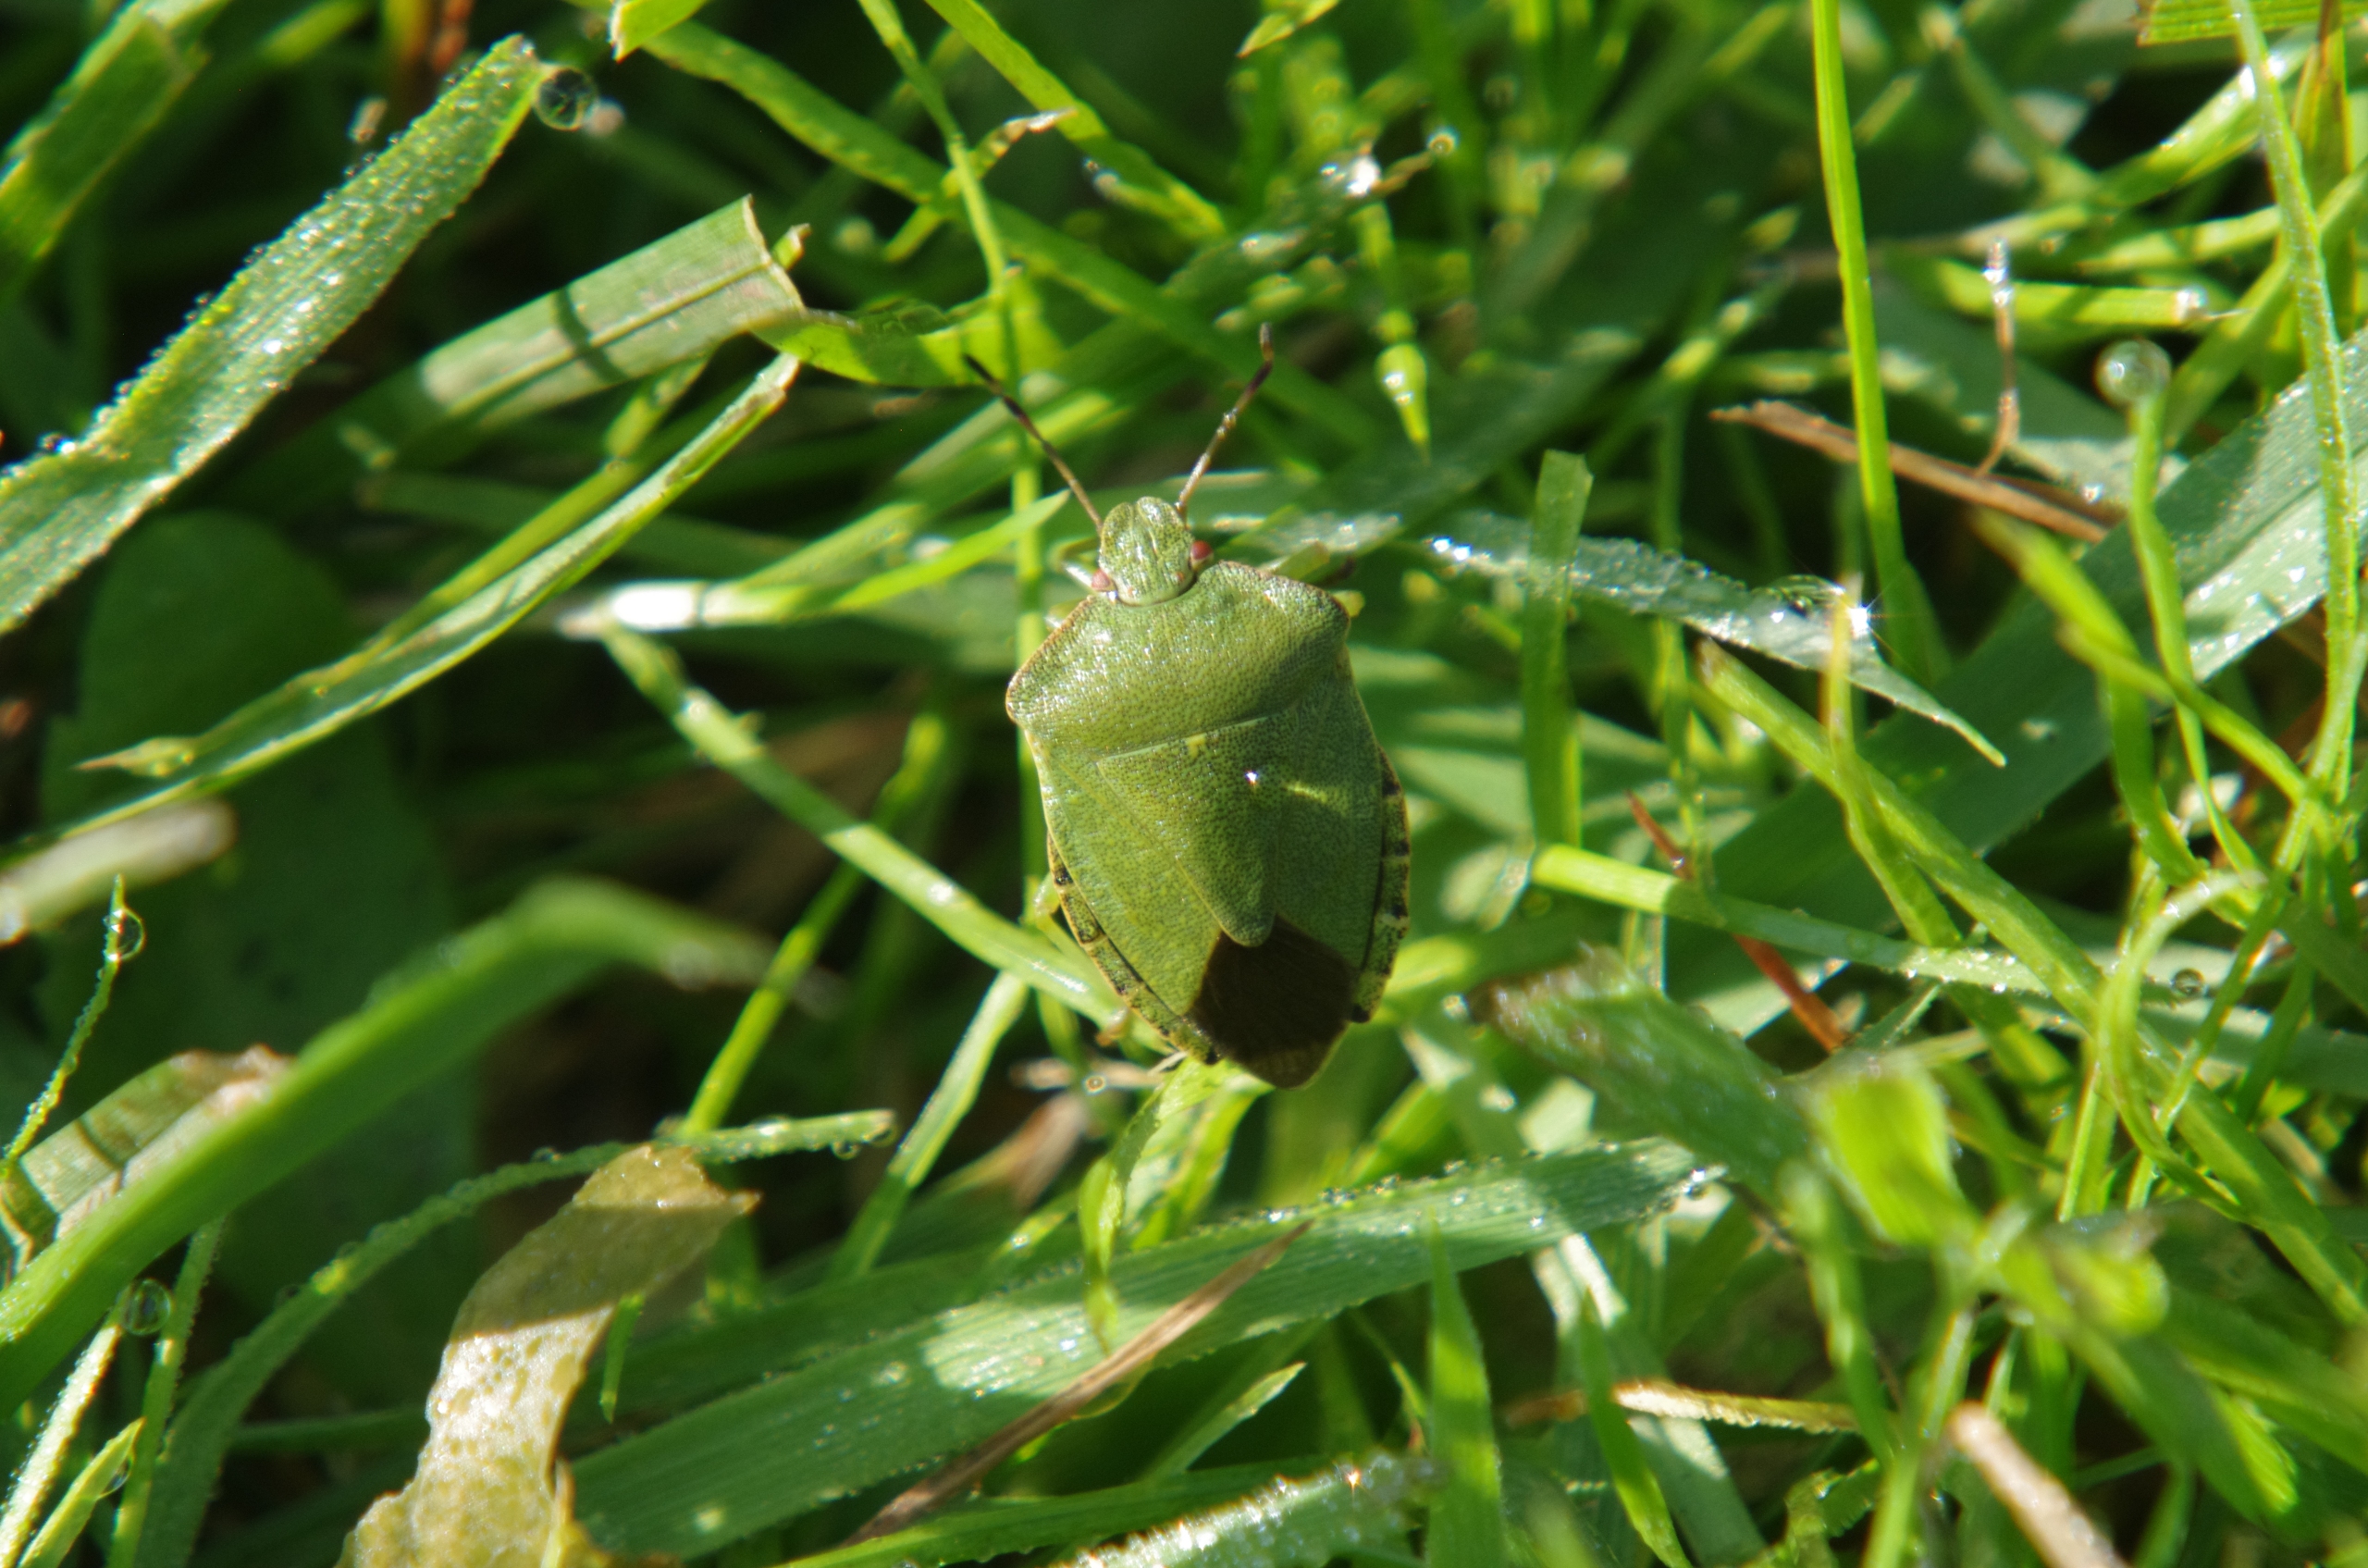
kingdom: Animalia
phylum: Arthropoda
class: Insecta
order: Hemiptera
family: Pentatomidae
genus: Palomena
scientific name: Palomena prasina
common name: Grøn bredtæge
